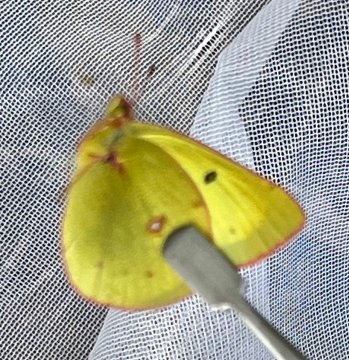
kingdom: Animalia
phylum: Arthropoda
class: Insecta
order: Lepidoptera
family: Pieridae
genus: Colias
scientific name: Colias philodice
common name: Clouded Sulphur
